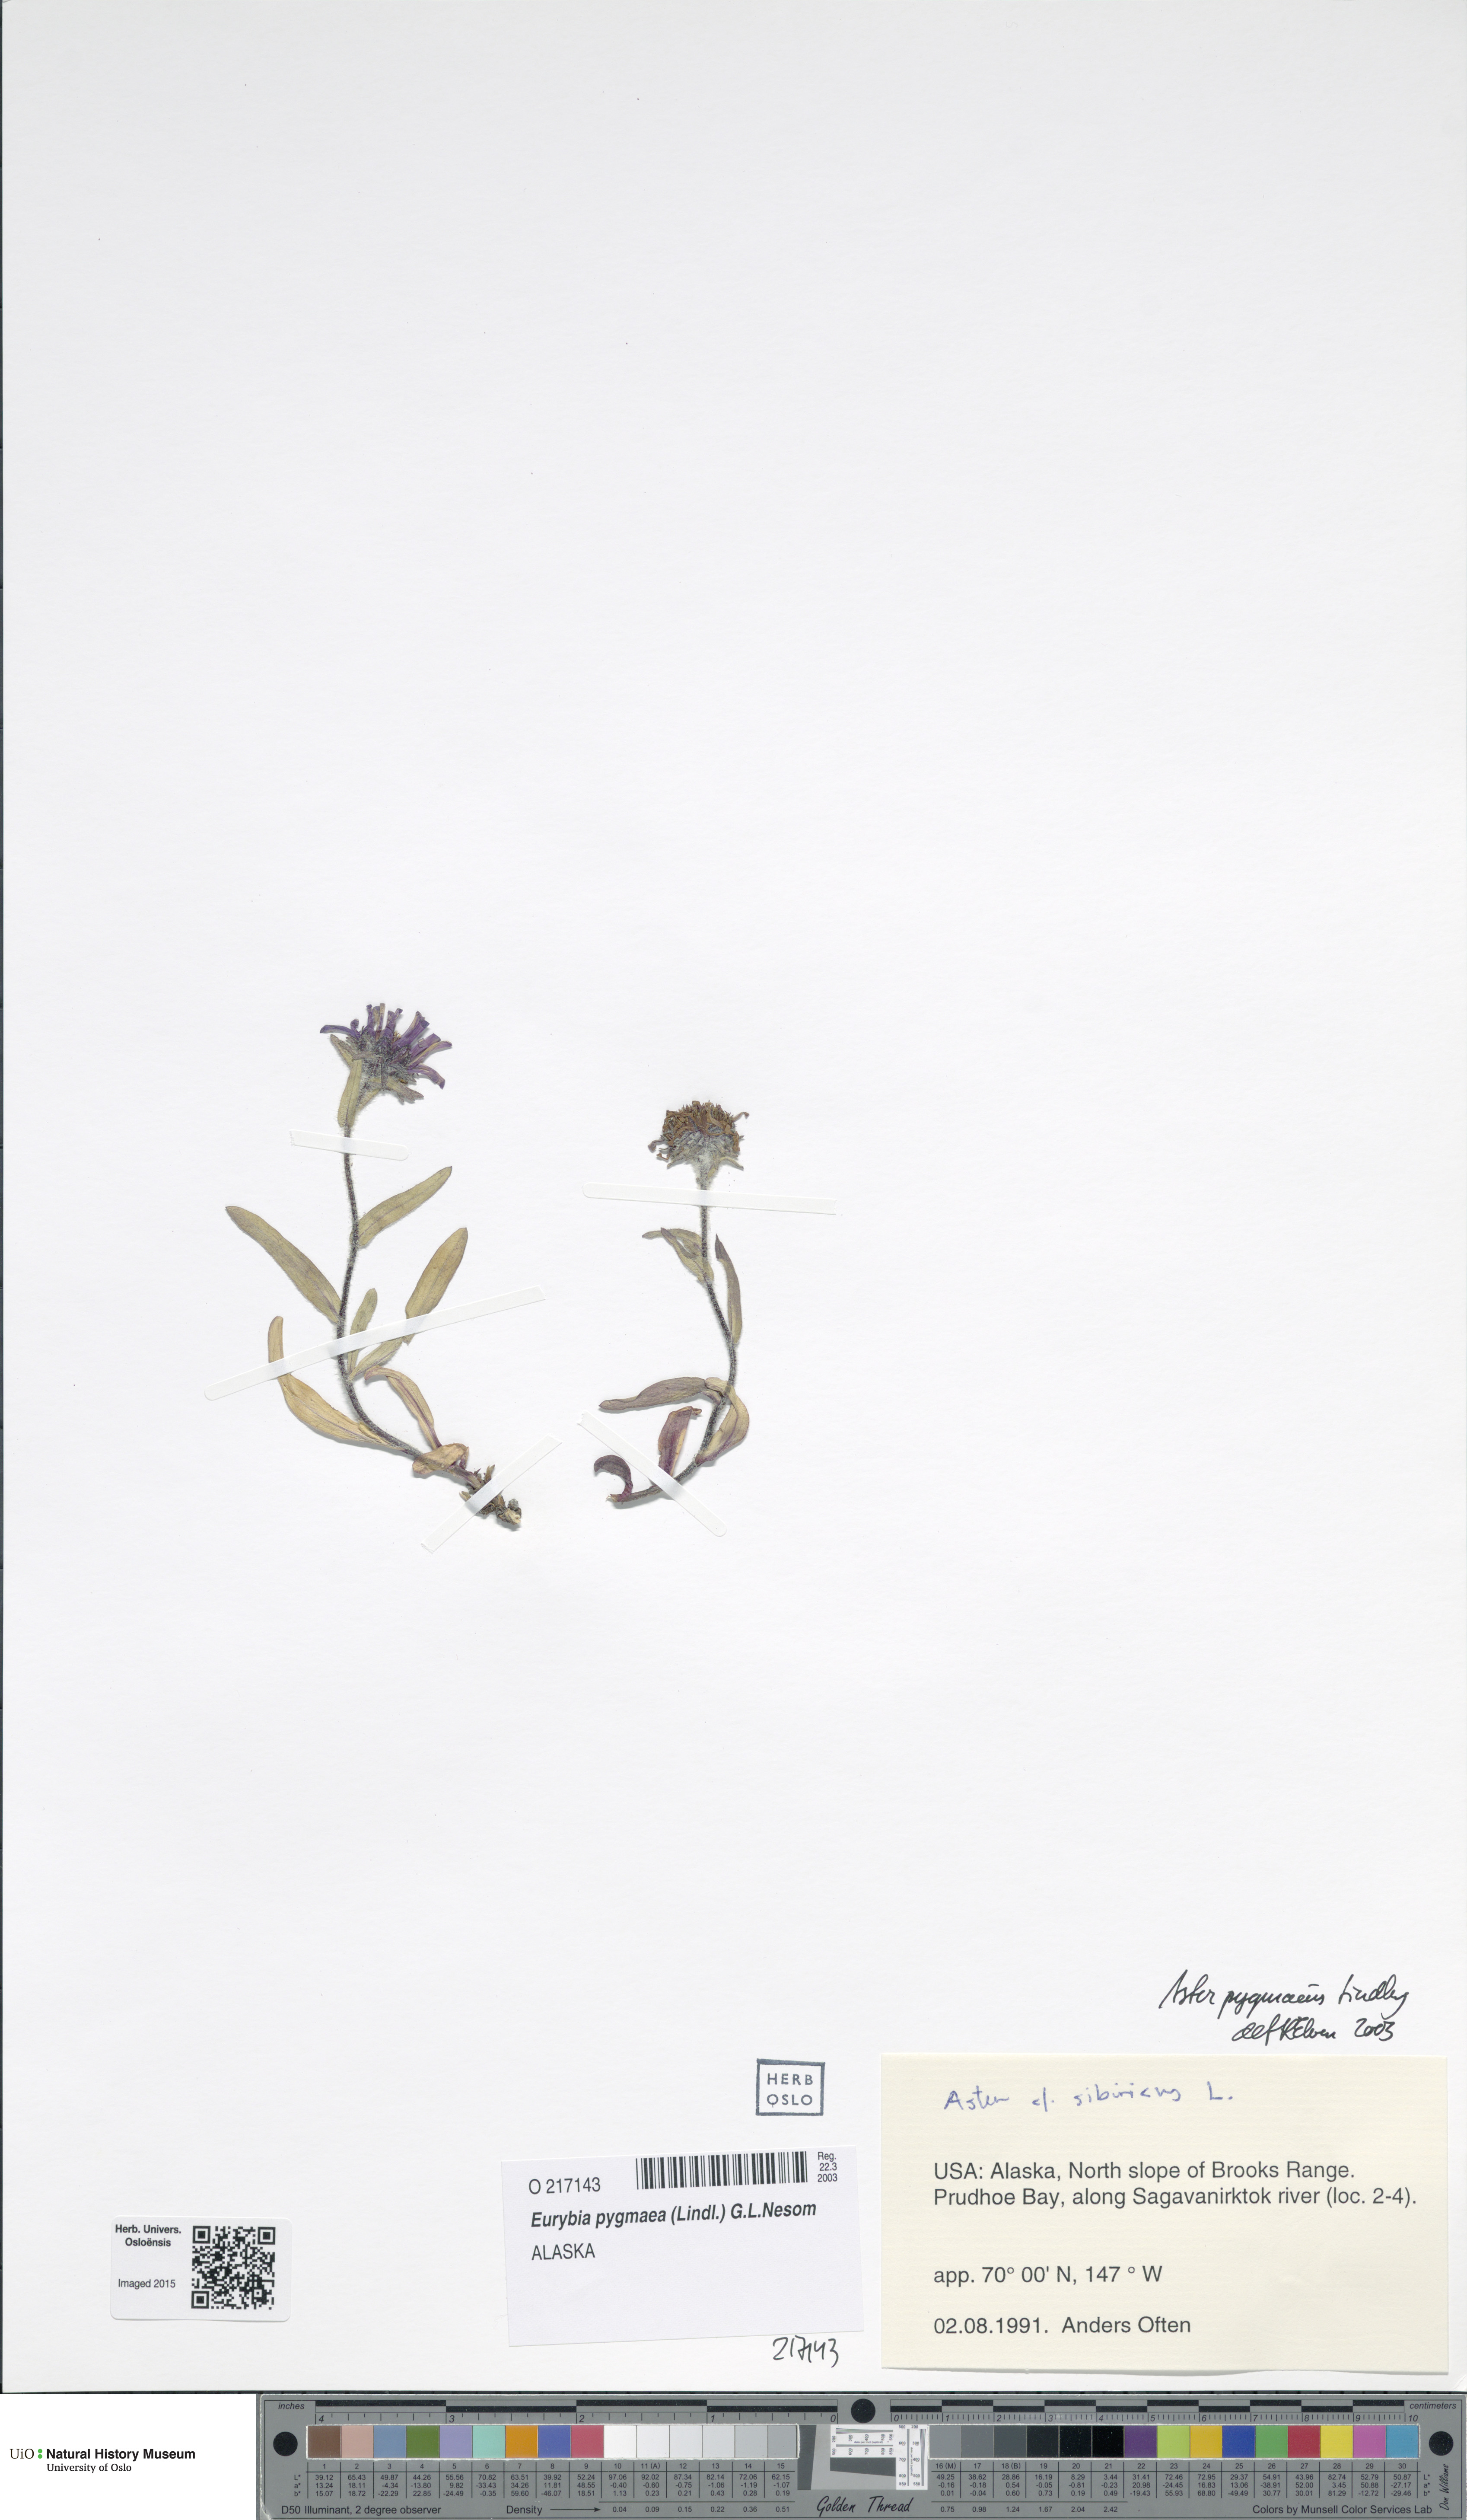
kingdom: Plantae
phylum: Tracheophyta
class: Magnoliopsida
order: Asterales
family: Asteraceae
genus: Symphyotrichum
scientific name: Symphyotrichum pygmaeum
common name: Pygmy aster
